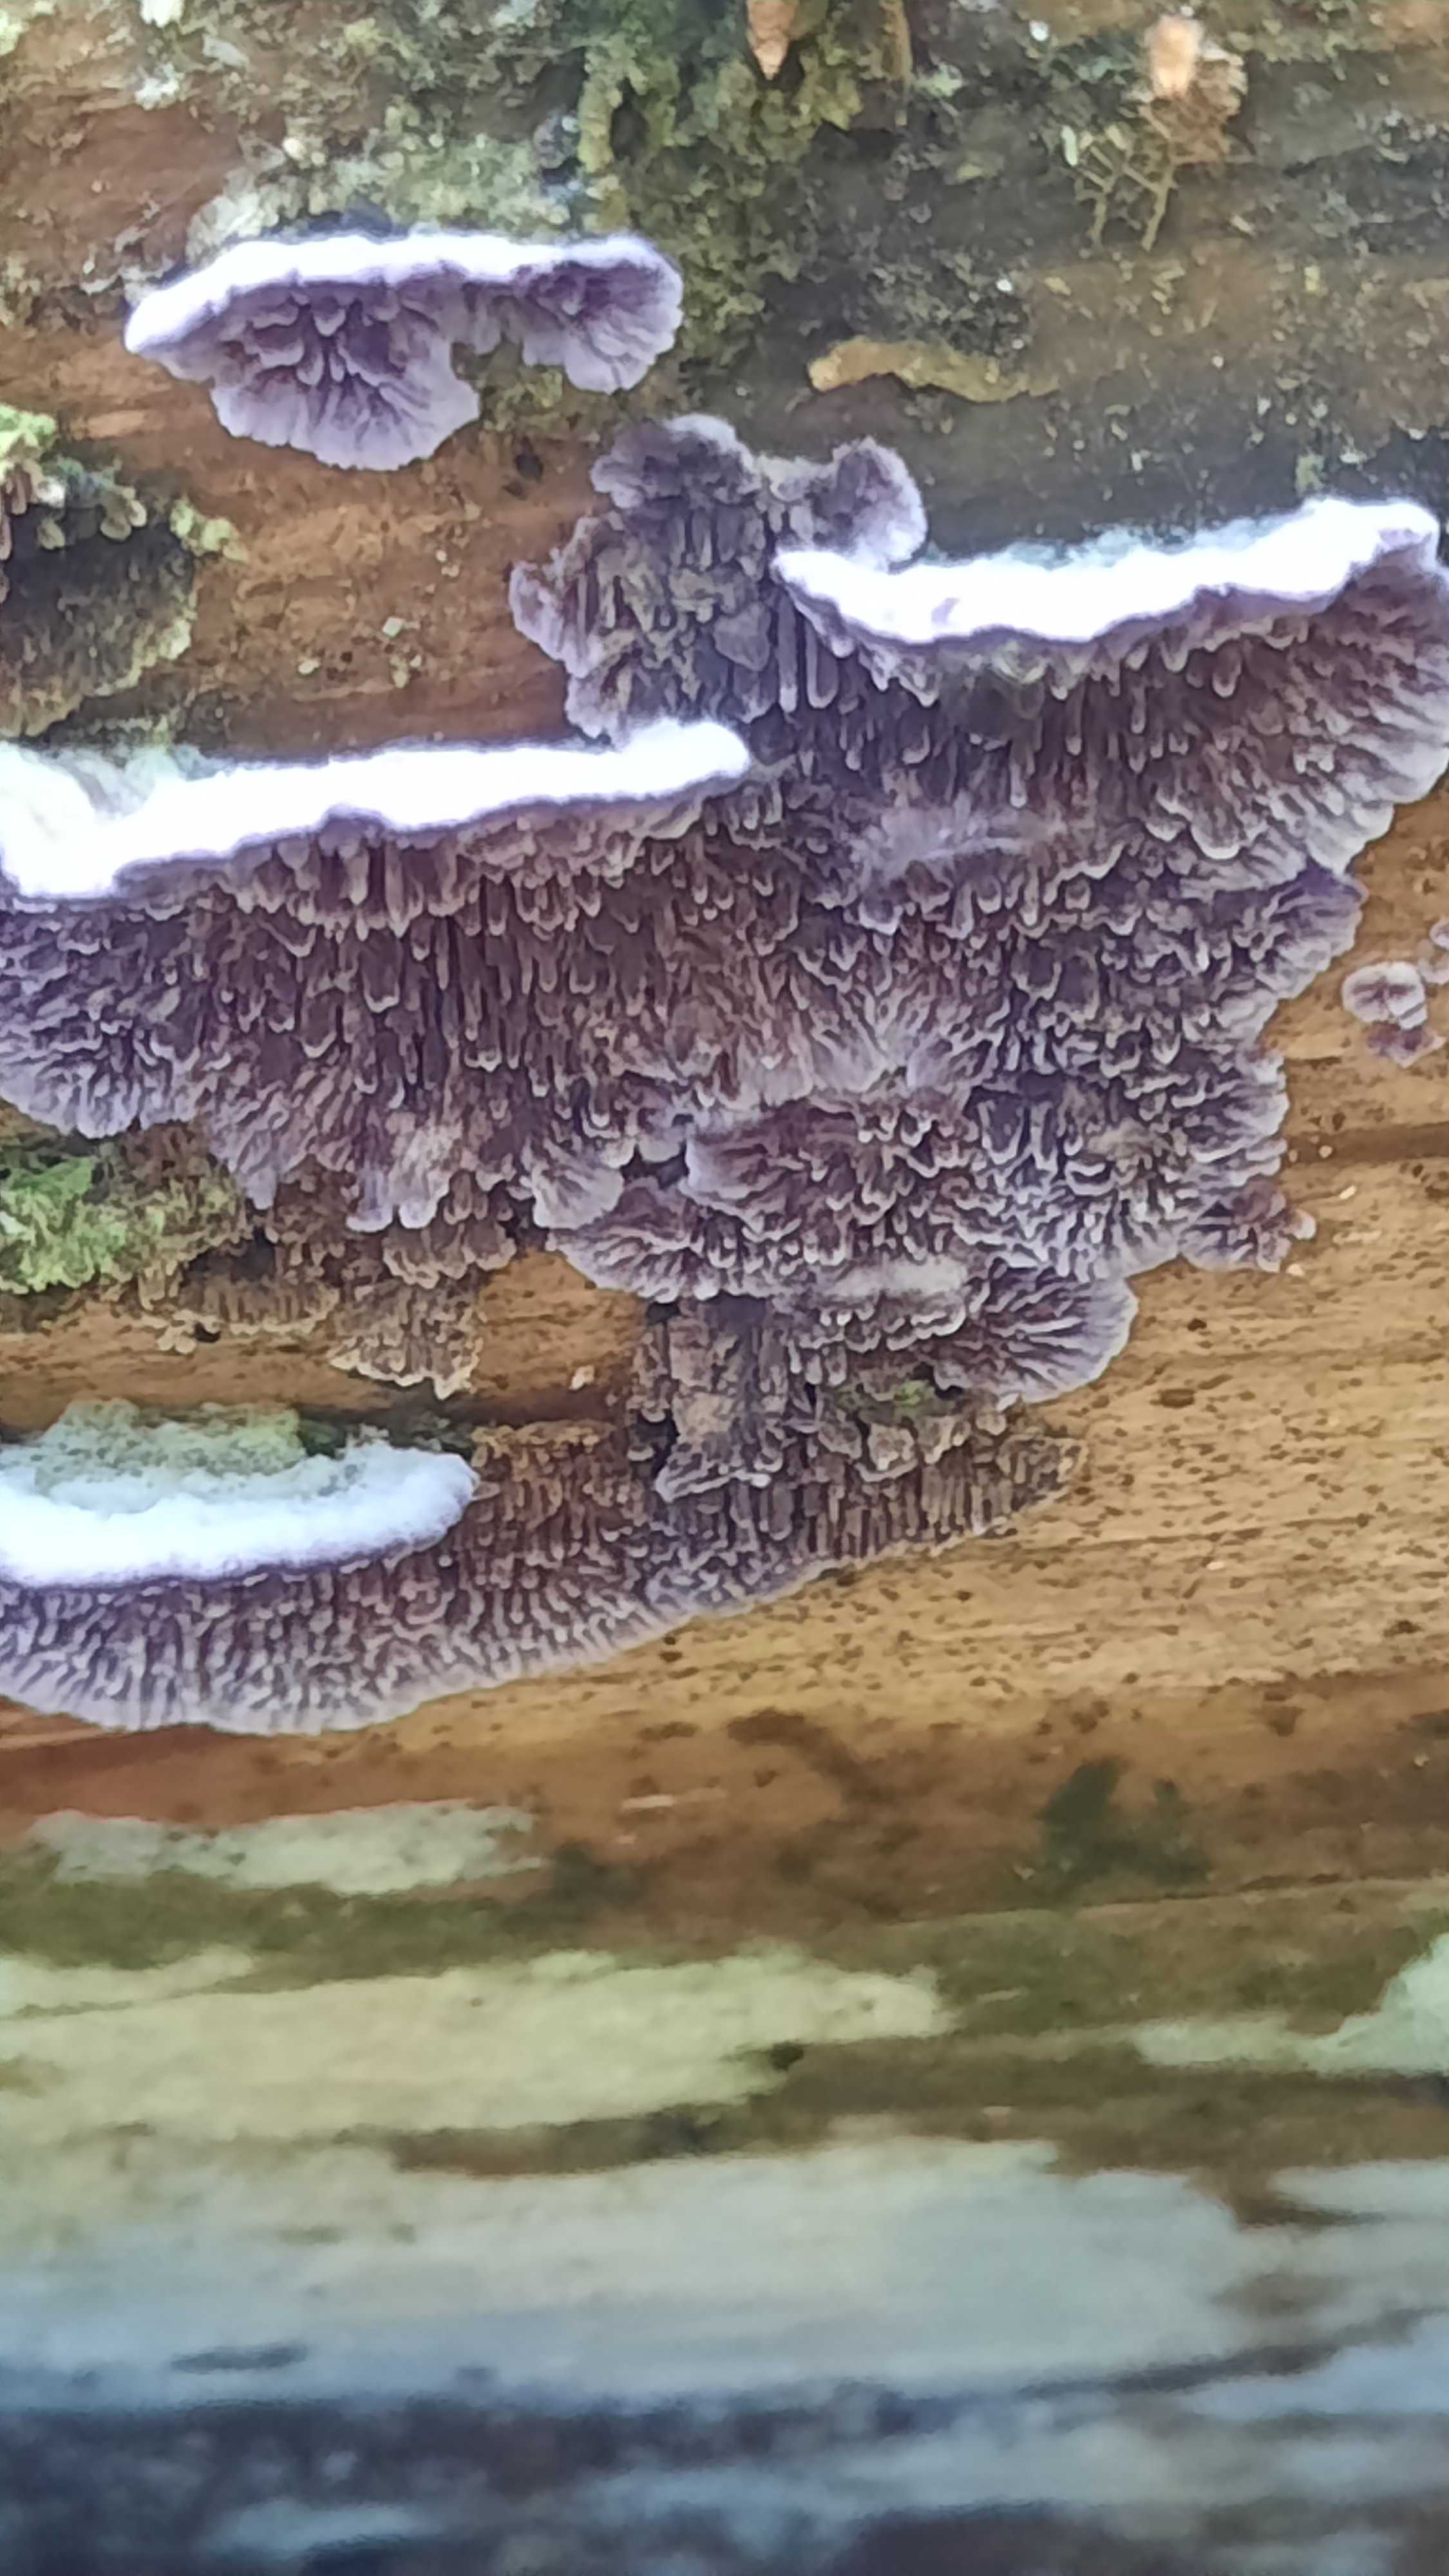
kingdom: Fungi
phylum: Basidiomycota
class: Agaricomycetes
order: Hymenochaetales
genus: Trichaptum
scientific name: Trichaptum fuscoviolaceum
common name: tandet violporesvamp
